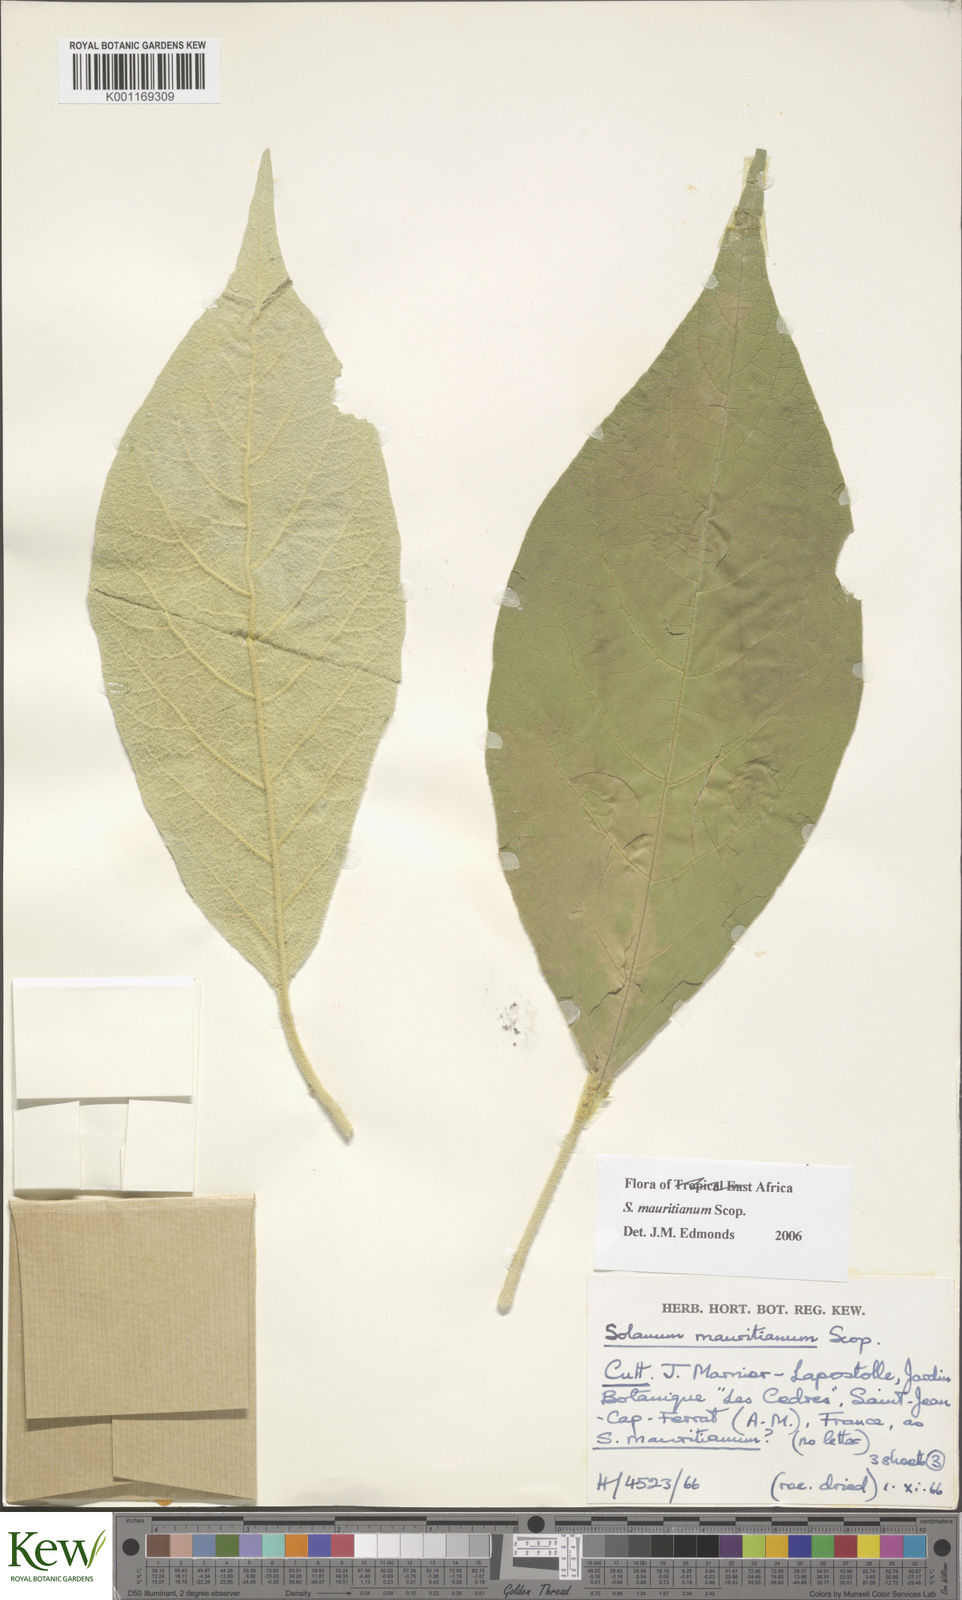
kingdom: Plantae
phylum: Tracheophyta
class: Magnoliopsida
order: Solanales
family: Solanaceae
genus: Solanum
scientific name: Solanum mauritianum
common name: Earleaf nightshade
